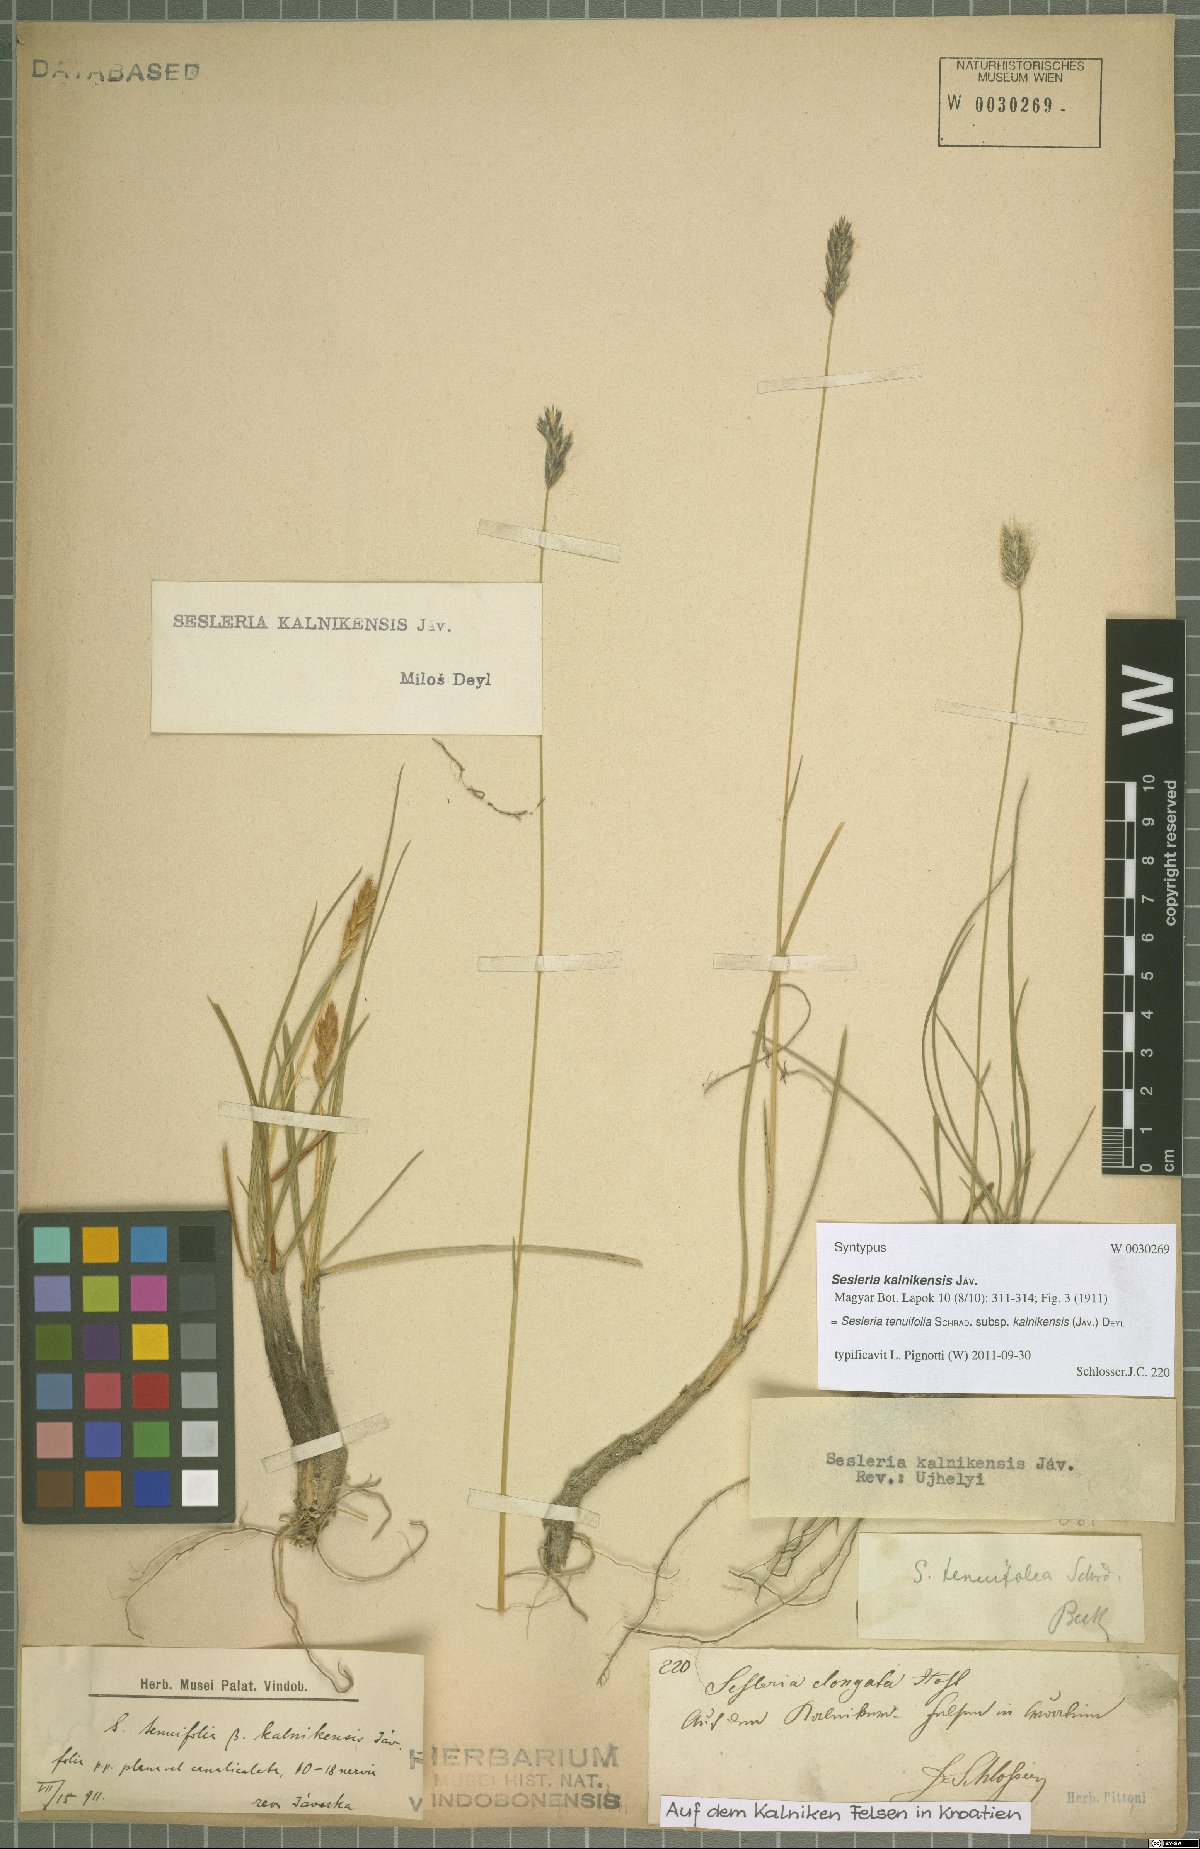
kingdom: Plantae
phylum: Tracheophyta
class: Liliopsida
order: Poales
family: Poaceae
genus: Sesleria
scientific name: Sesleria juncifolia
